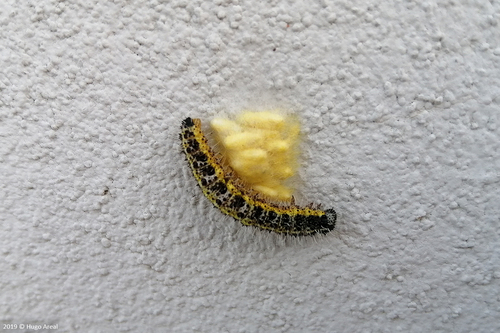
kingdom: Animalia
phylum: Arthropoda
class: Insecta
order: Lepidoptera
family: Pieridae
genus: Pieris
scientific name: Pieris brassicae
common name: Large white
